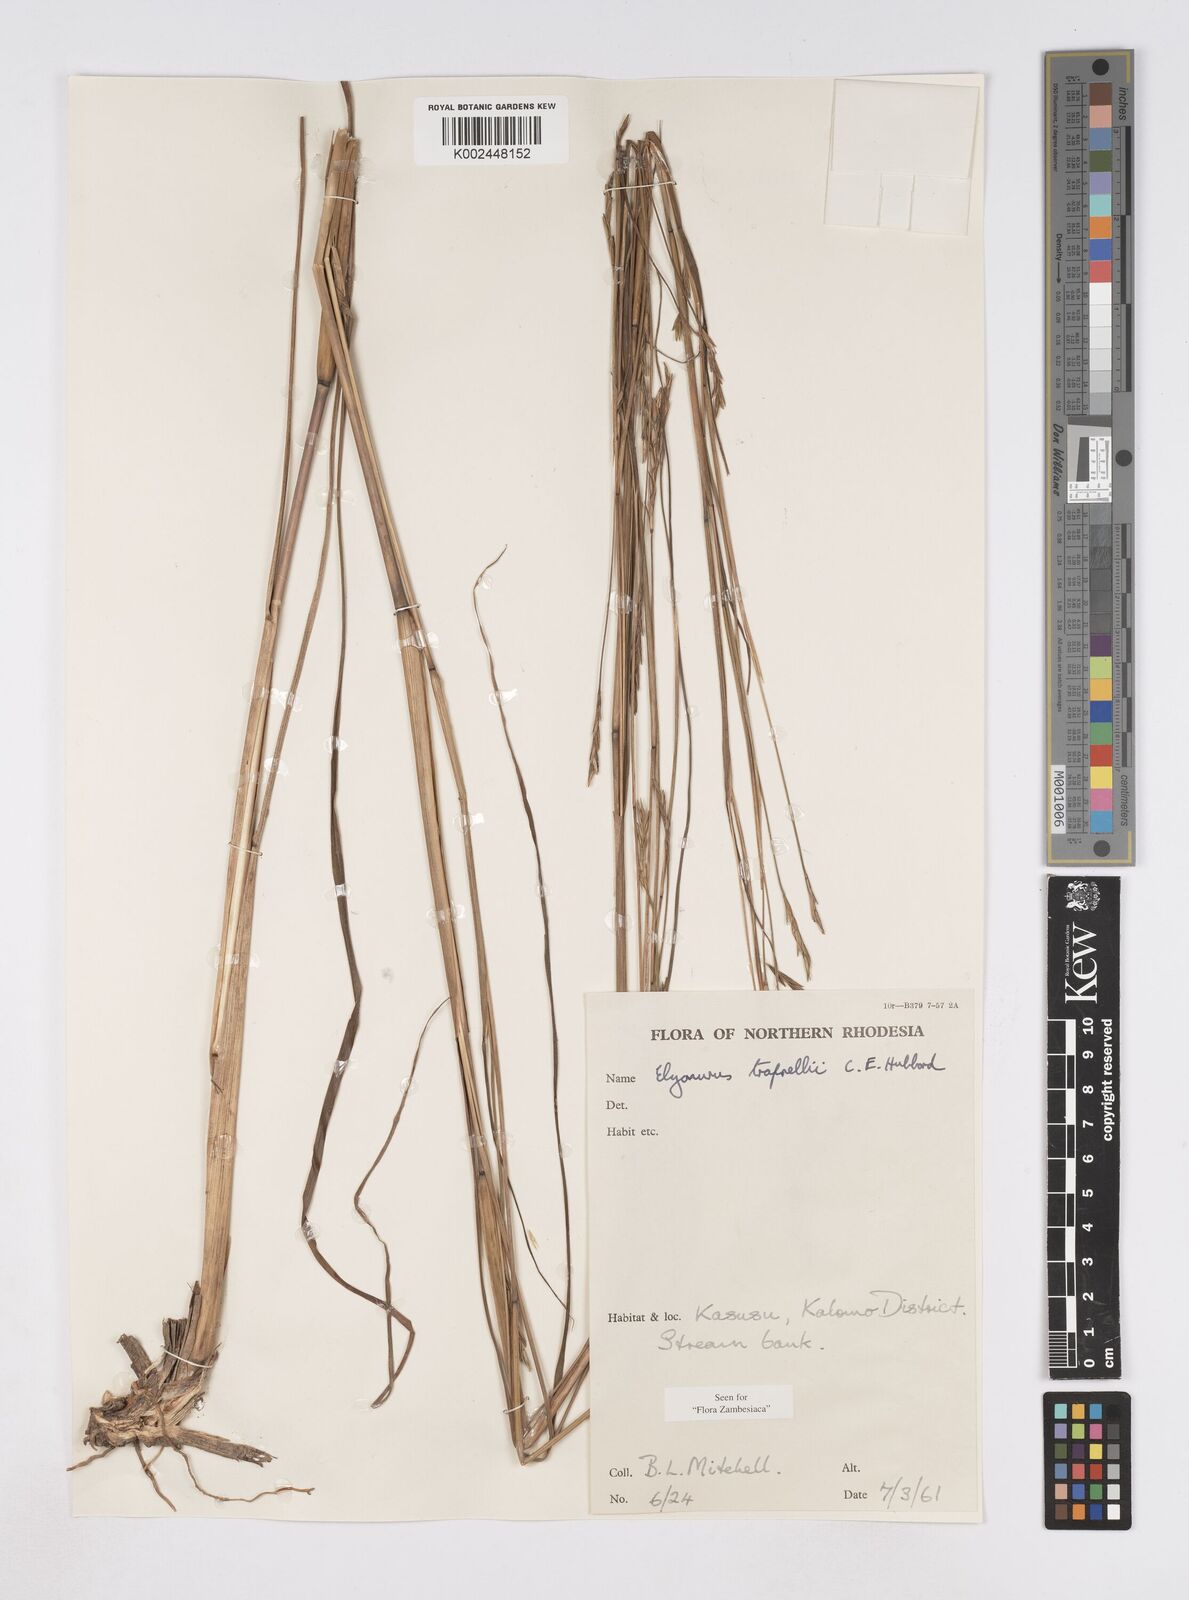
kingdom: Plantae
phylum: Tracheophyta
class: Liliopsida
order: Poales
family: Poaceae
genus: Elionurus
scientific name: Elionurus tripsacoides
